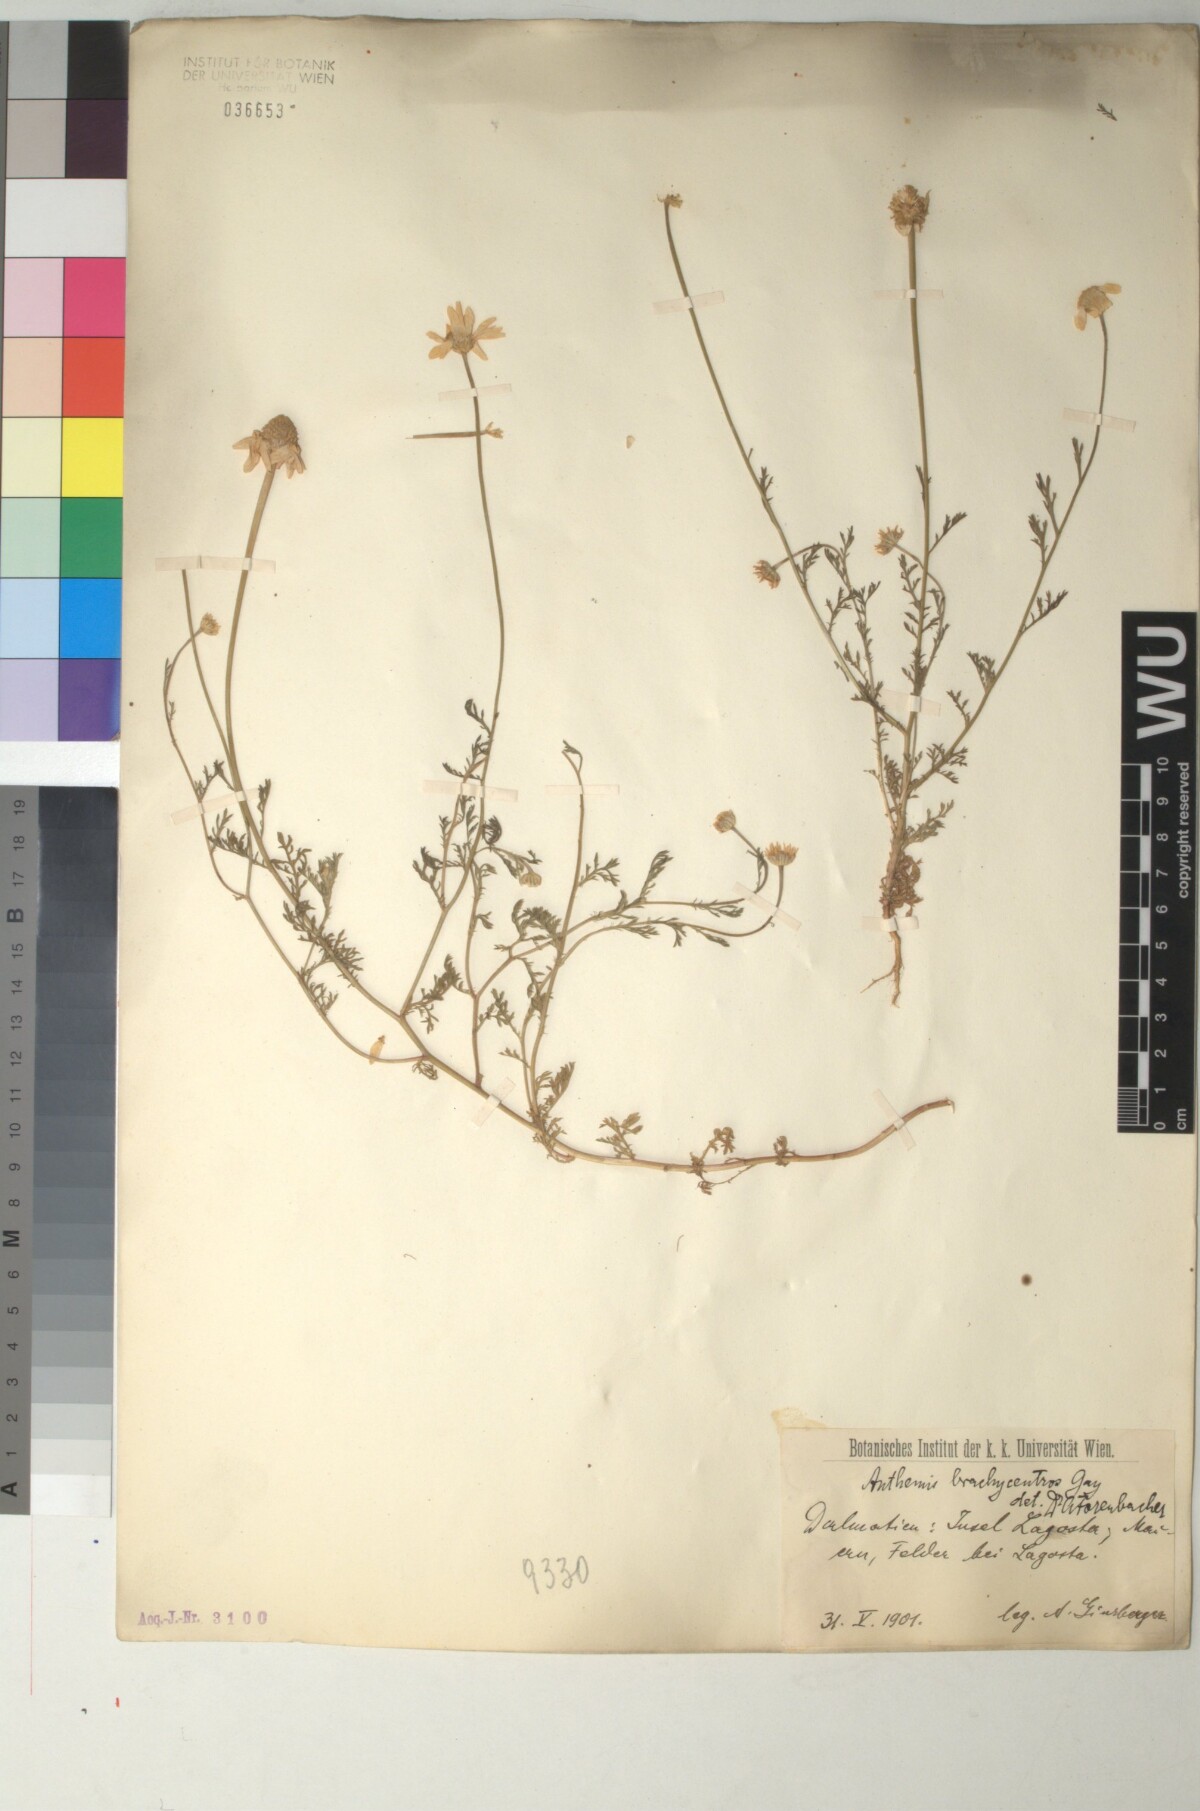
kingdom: Plantae
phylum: Tracheophyta
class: Magnoliopsida
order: Asterales
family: Asteraceae
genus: Cota
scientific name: Cota segetalis
